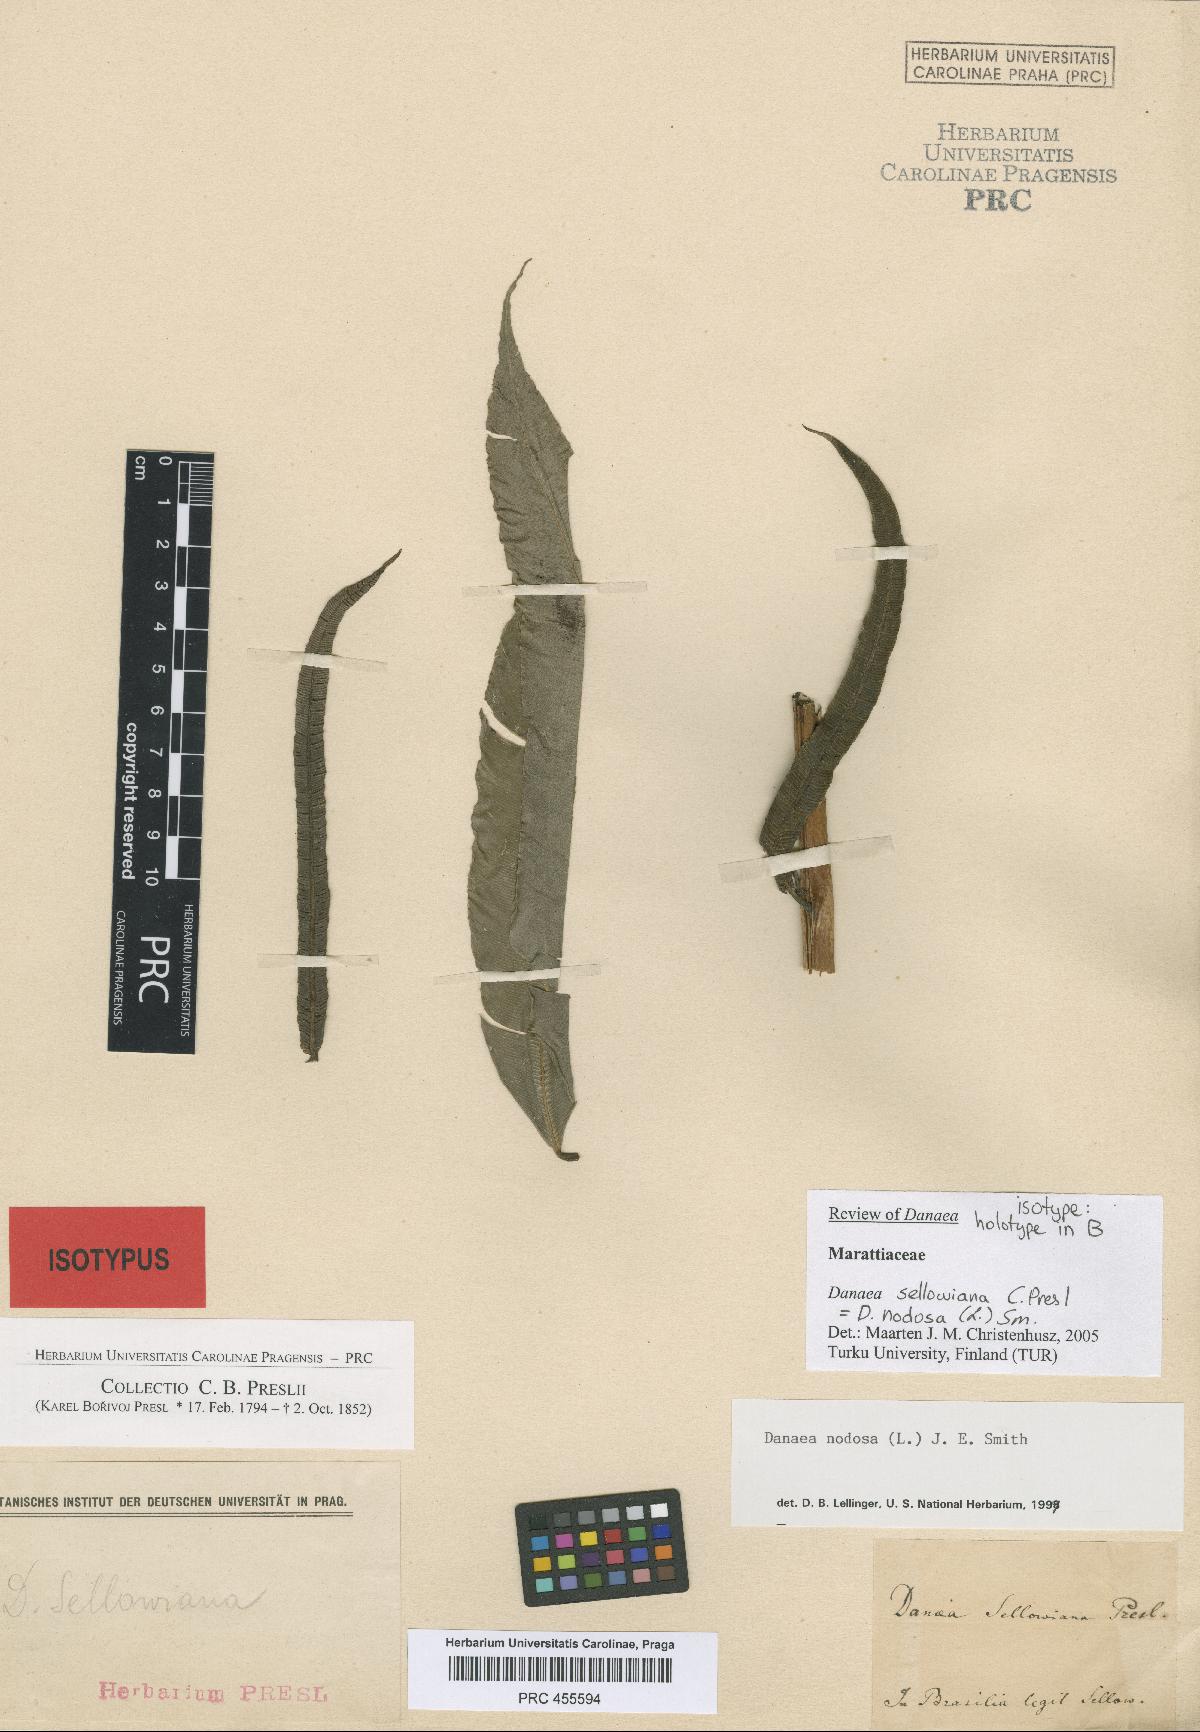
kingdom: Plantae
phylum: Tracheophyta
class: Polypodiopsida
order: Marattiales
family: Marattiaceae
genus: Danaea
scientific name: Danaea nodosa
